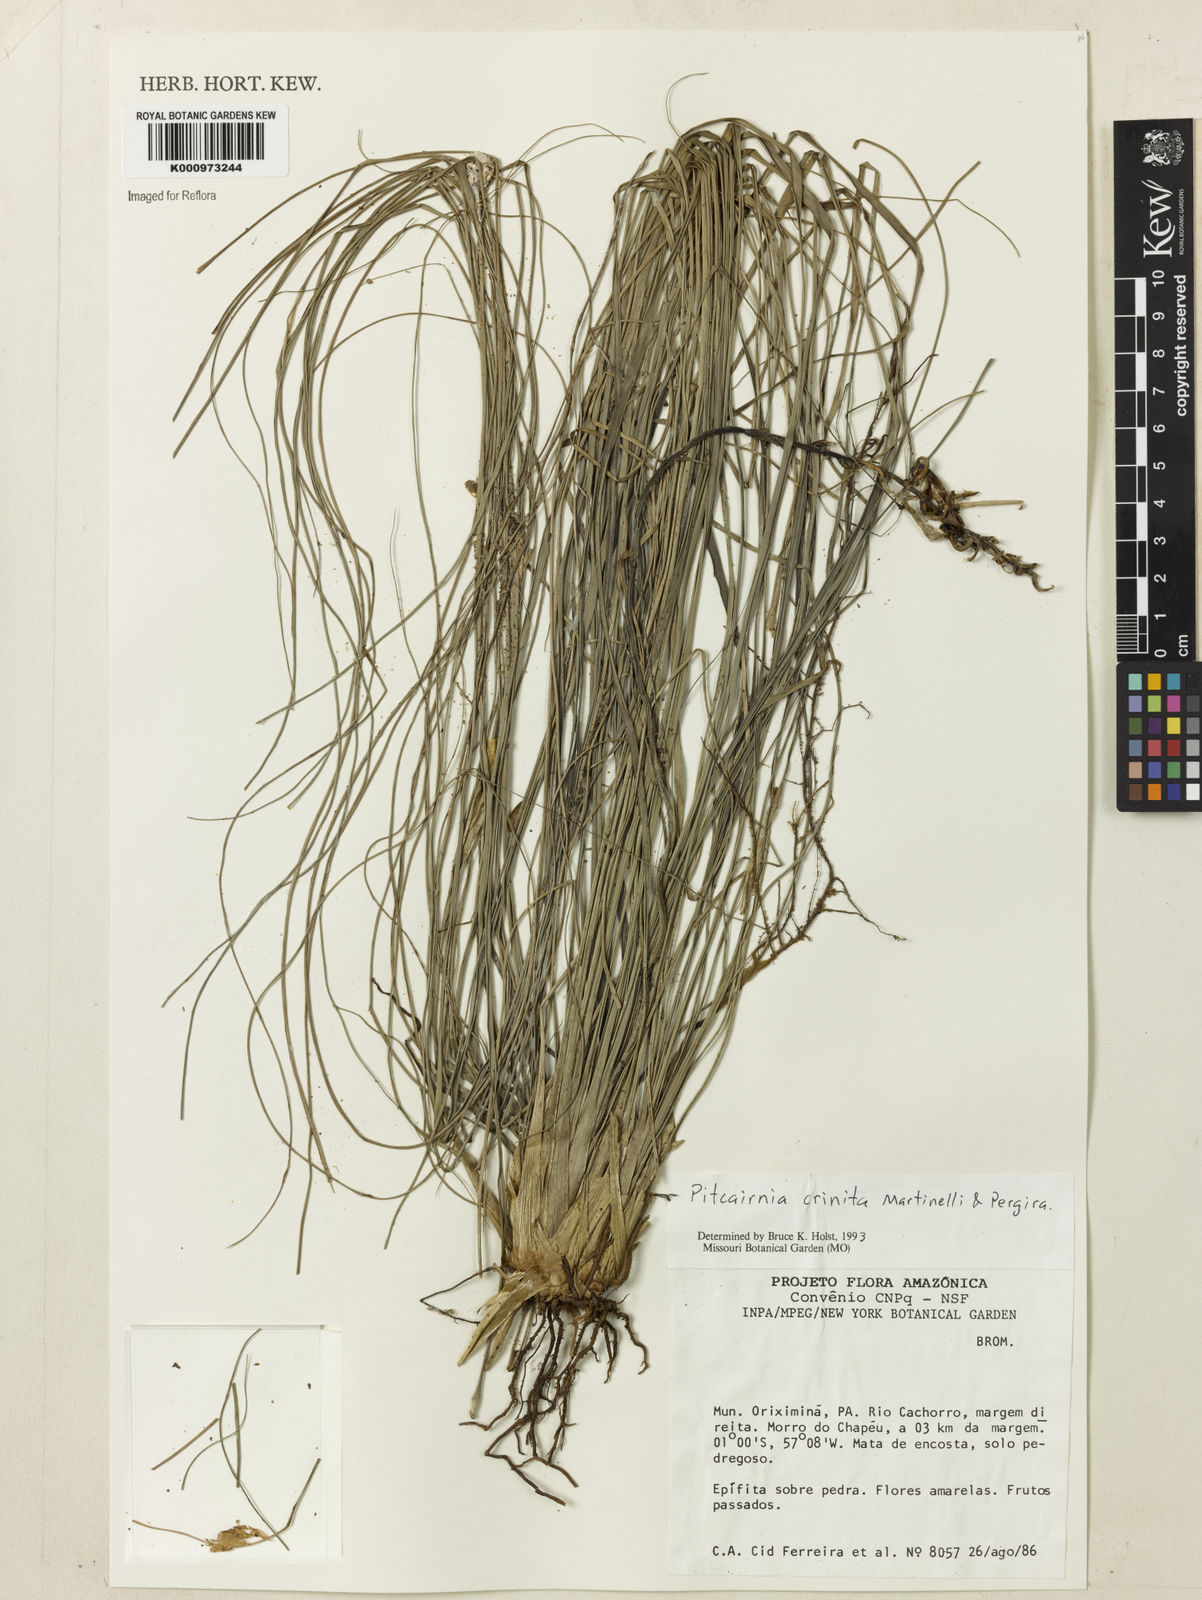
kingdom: Plantae
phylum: Tracheophyta
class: Liliopsida
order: Poales
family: Bromeliaceae
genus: Pitcairnia
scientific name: Pitcairnia crinita
